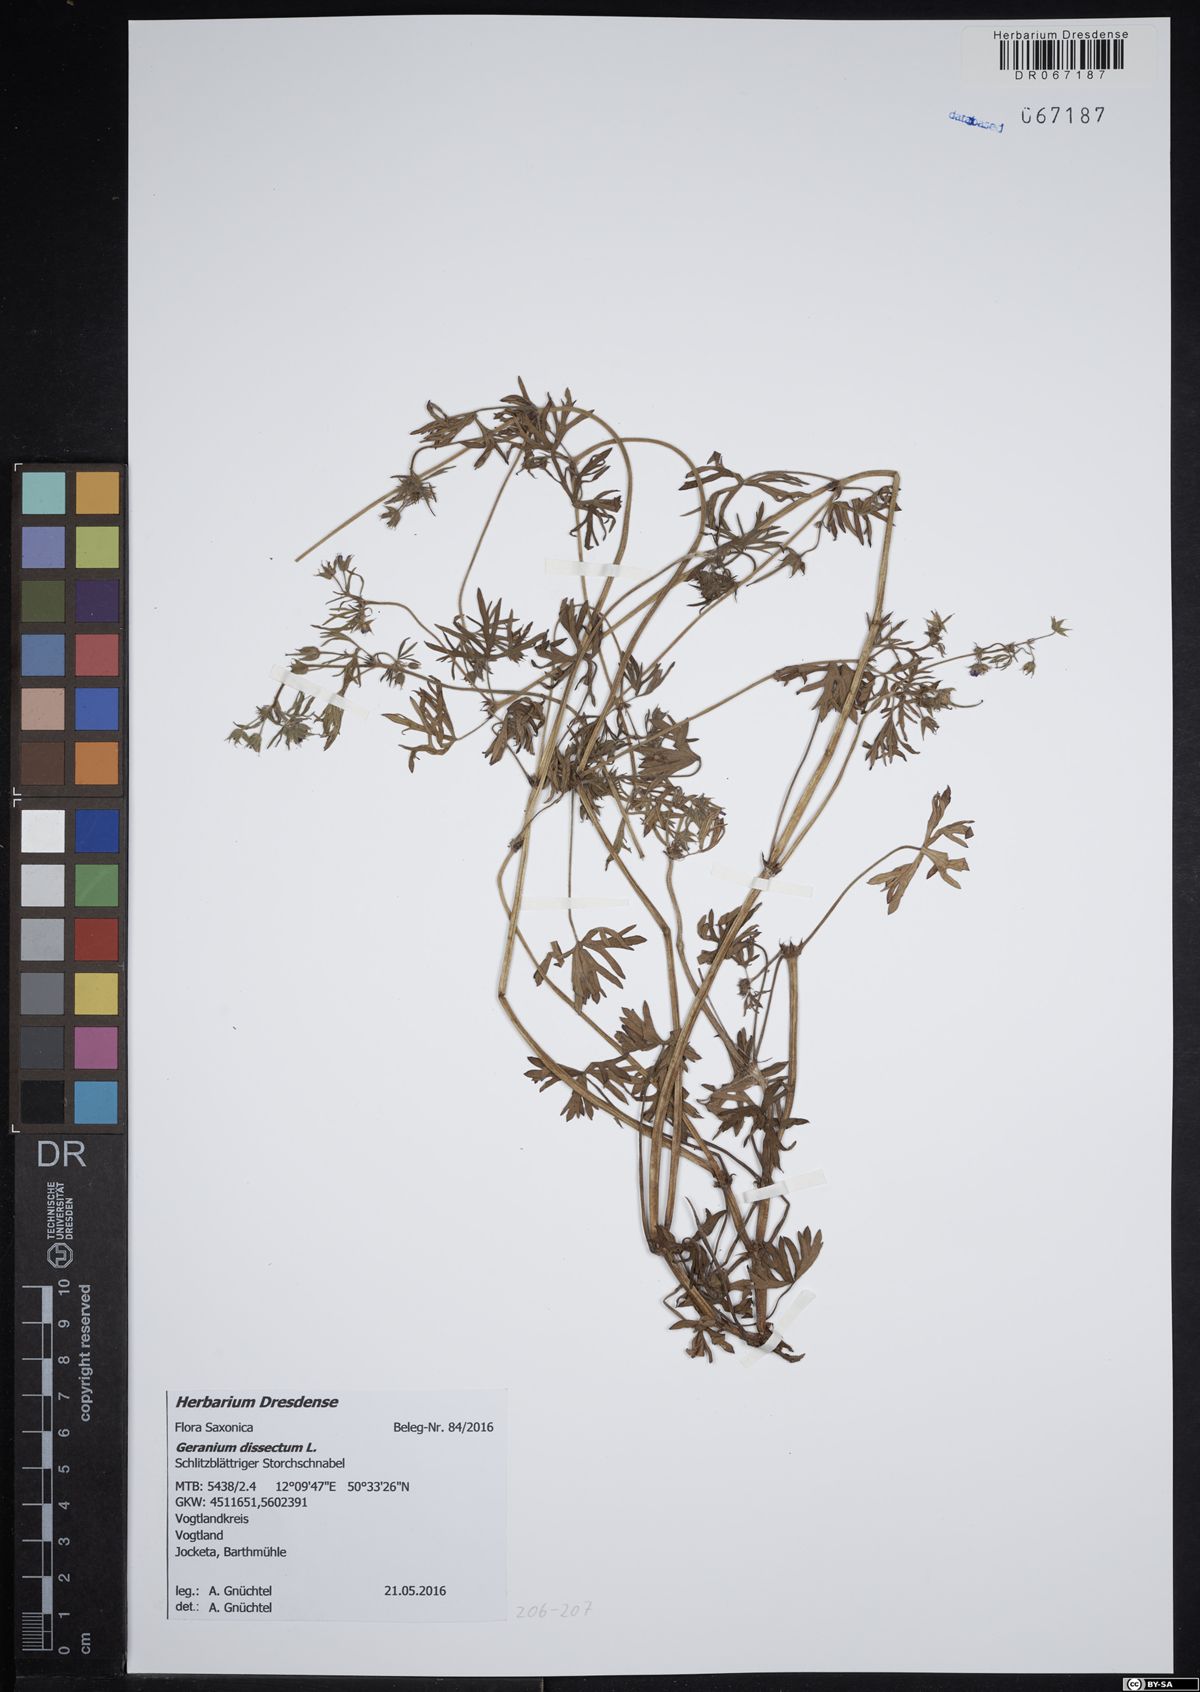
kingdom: Plantae
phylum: Tracheophyta
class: Magnoliopsida
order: Geraniales
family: Geraniaceae
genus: Geranium
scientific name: Geranium dissectum
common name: Cut-leaved crane's-bill
